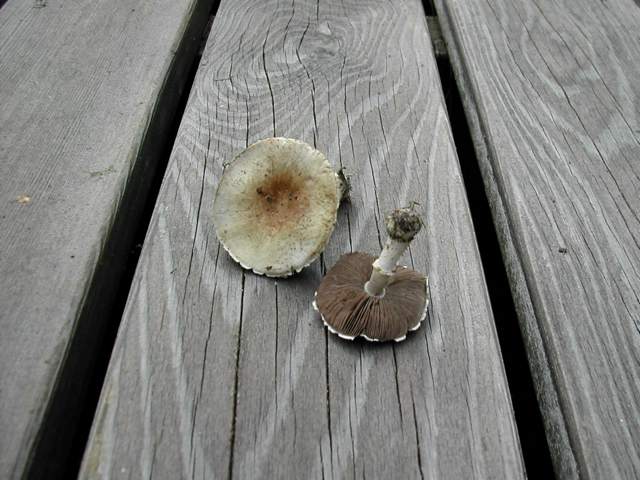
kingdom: Fungi
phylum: Basidiomycota
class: Agaricomycetes
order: Agaricales
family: Agaricaceae
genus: Agaricus
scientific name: Agaricus dulcidulus
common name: blegrød champignon
